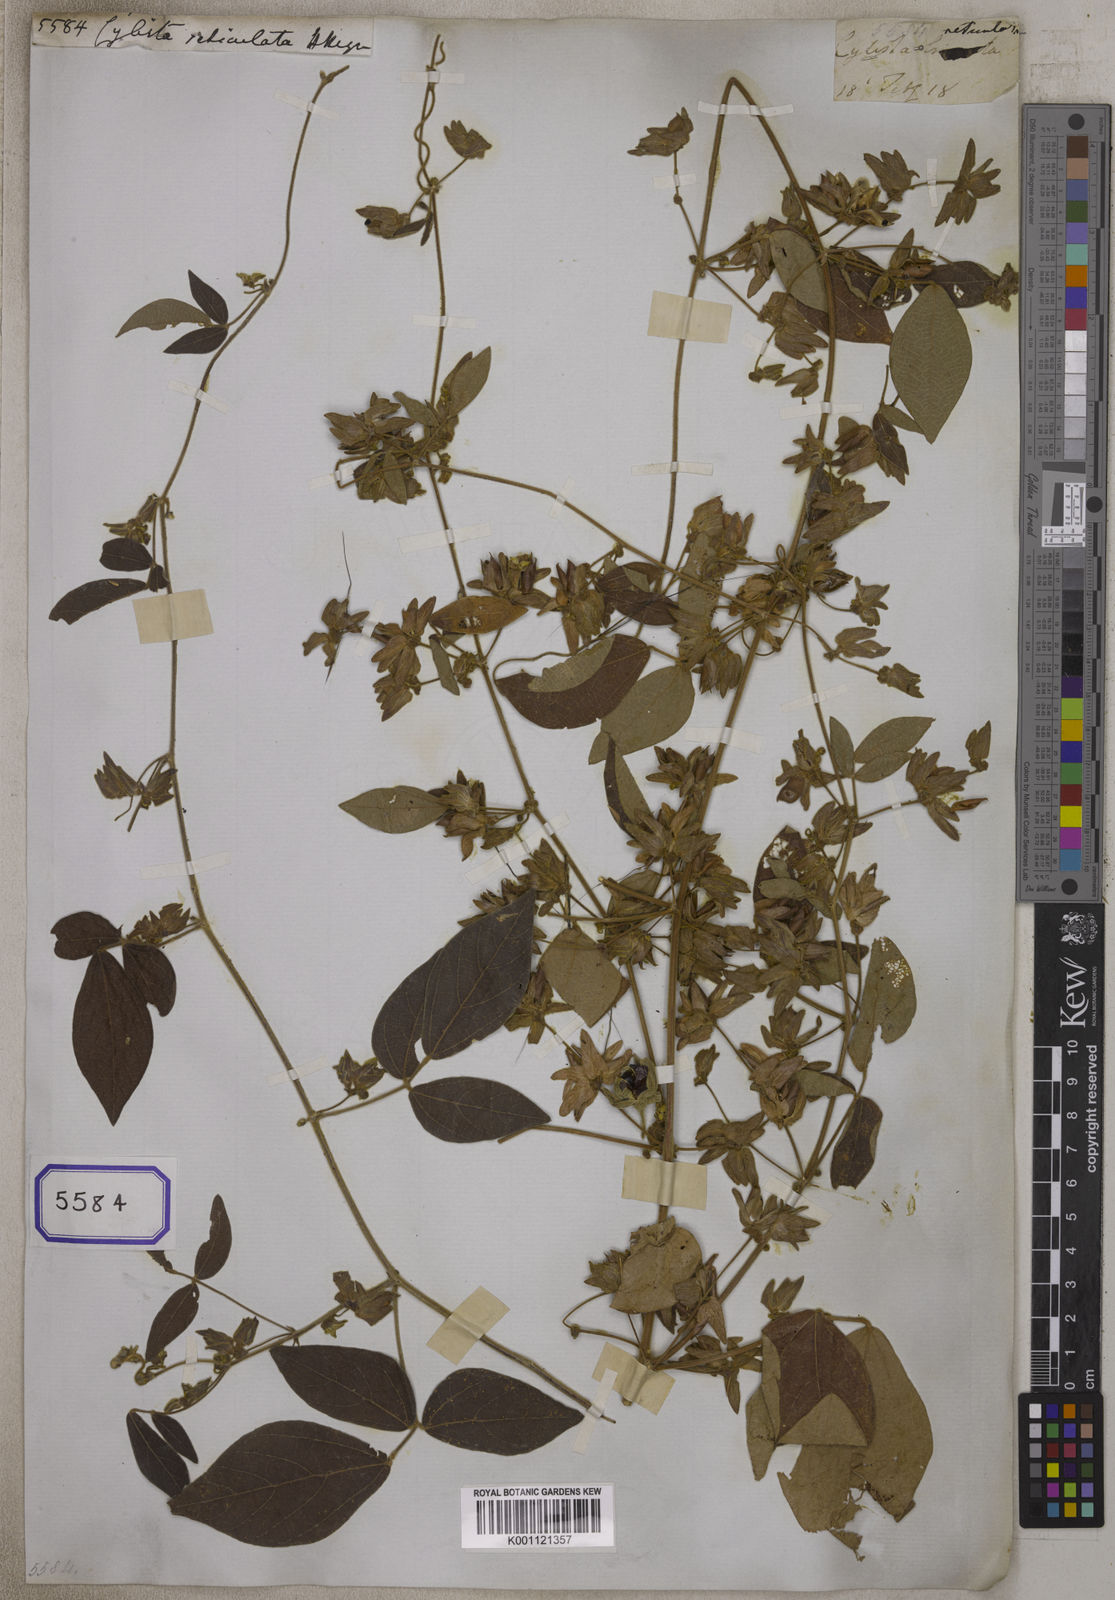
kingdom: Plantae
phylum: Tracheophyta
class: Magnoliopsida
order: Fabales
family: Fabaceae
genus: Rhynchosia
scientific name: Rhynchosia heynei
